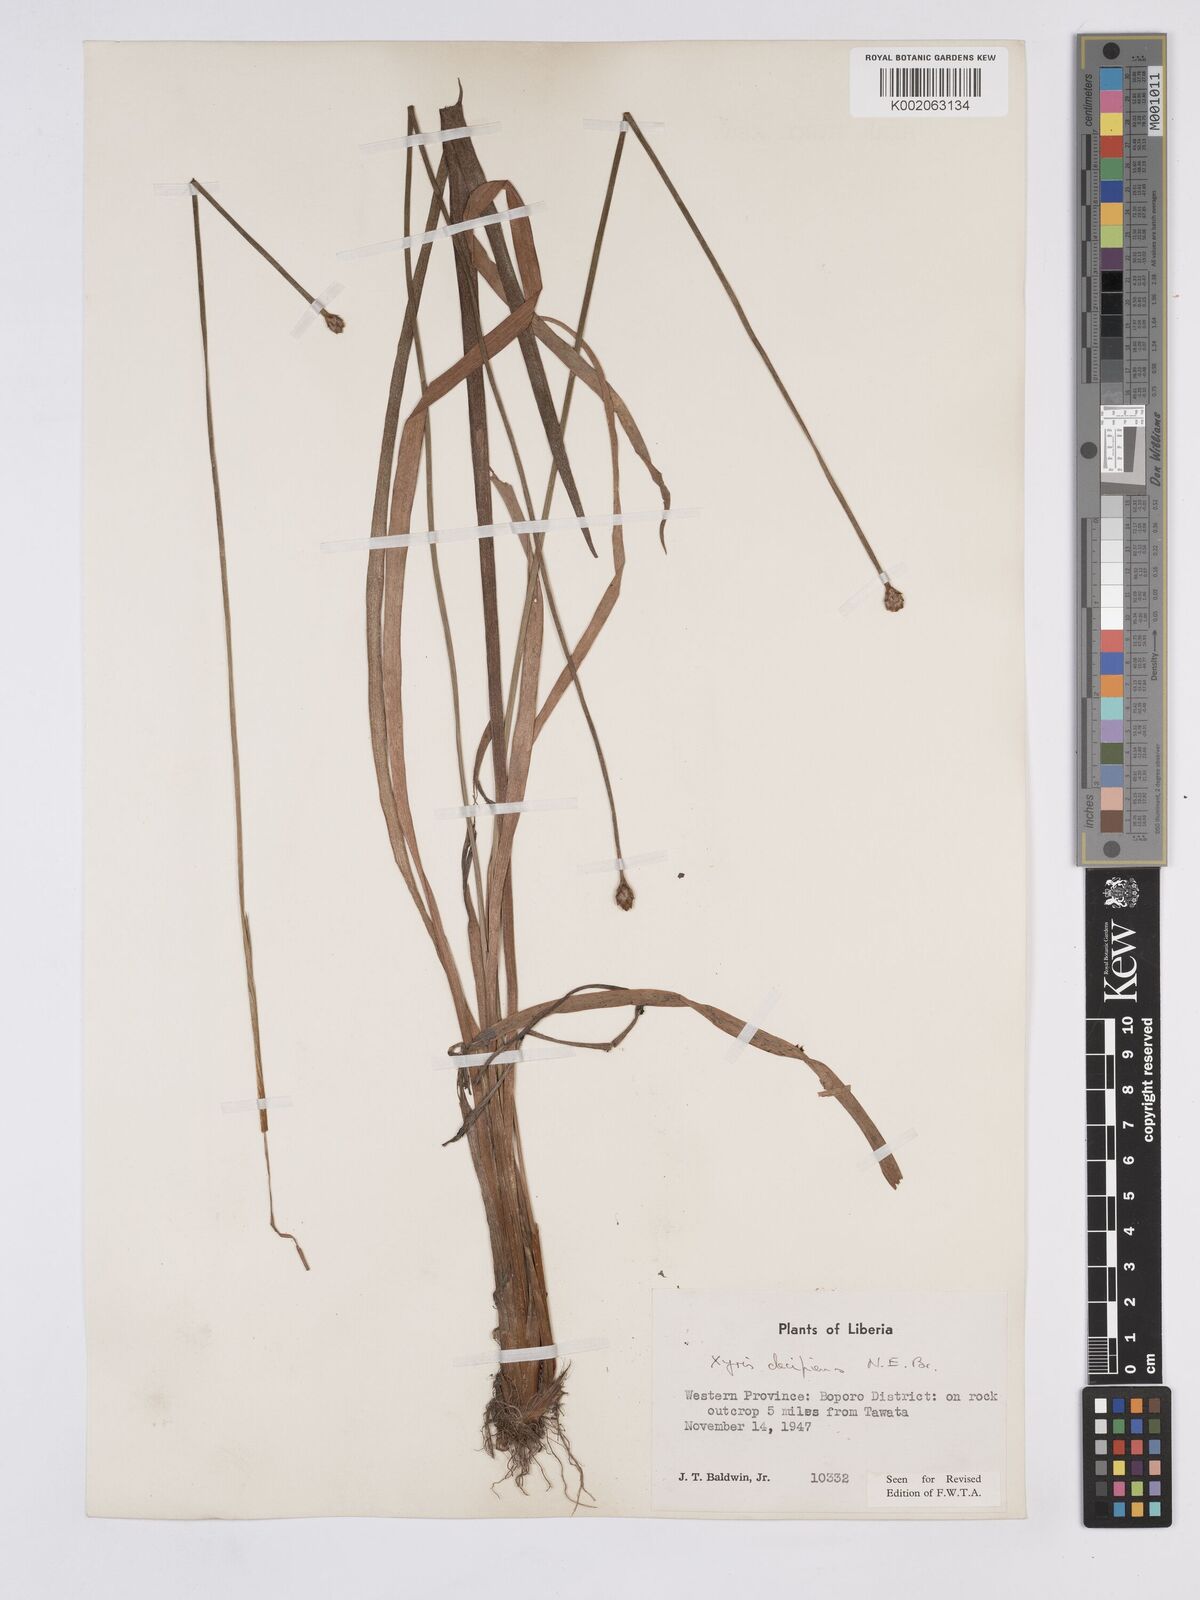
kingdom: Plantae
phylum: Tracheophyta
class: Liliopsida
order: Poales
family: Xyridaceae
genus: Xyris
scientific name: Xyris decipiens
